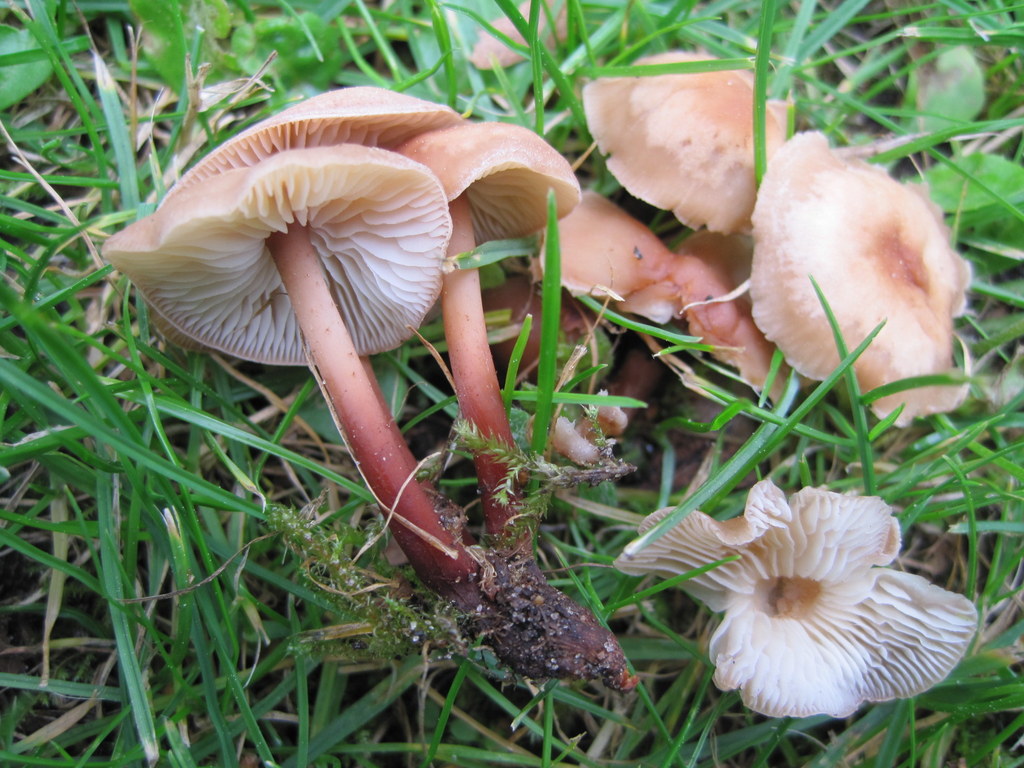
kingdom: Fungi
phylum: Basidiomycota
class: Agaricomycetes
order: Agaricales
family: Omphalotaceae
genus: Gymnopus
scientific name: Gymnopus erythropus
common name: rødstokket fladhat
